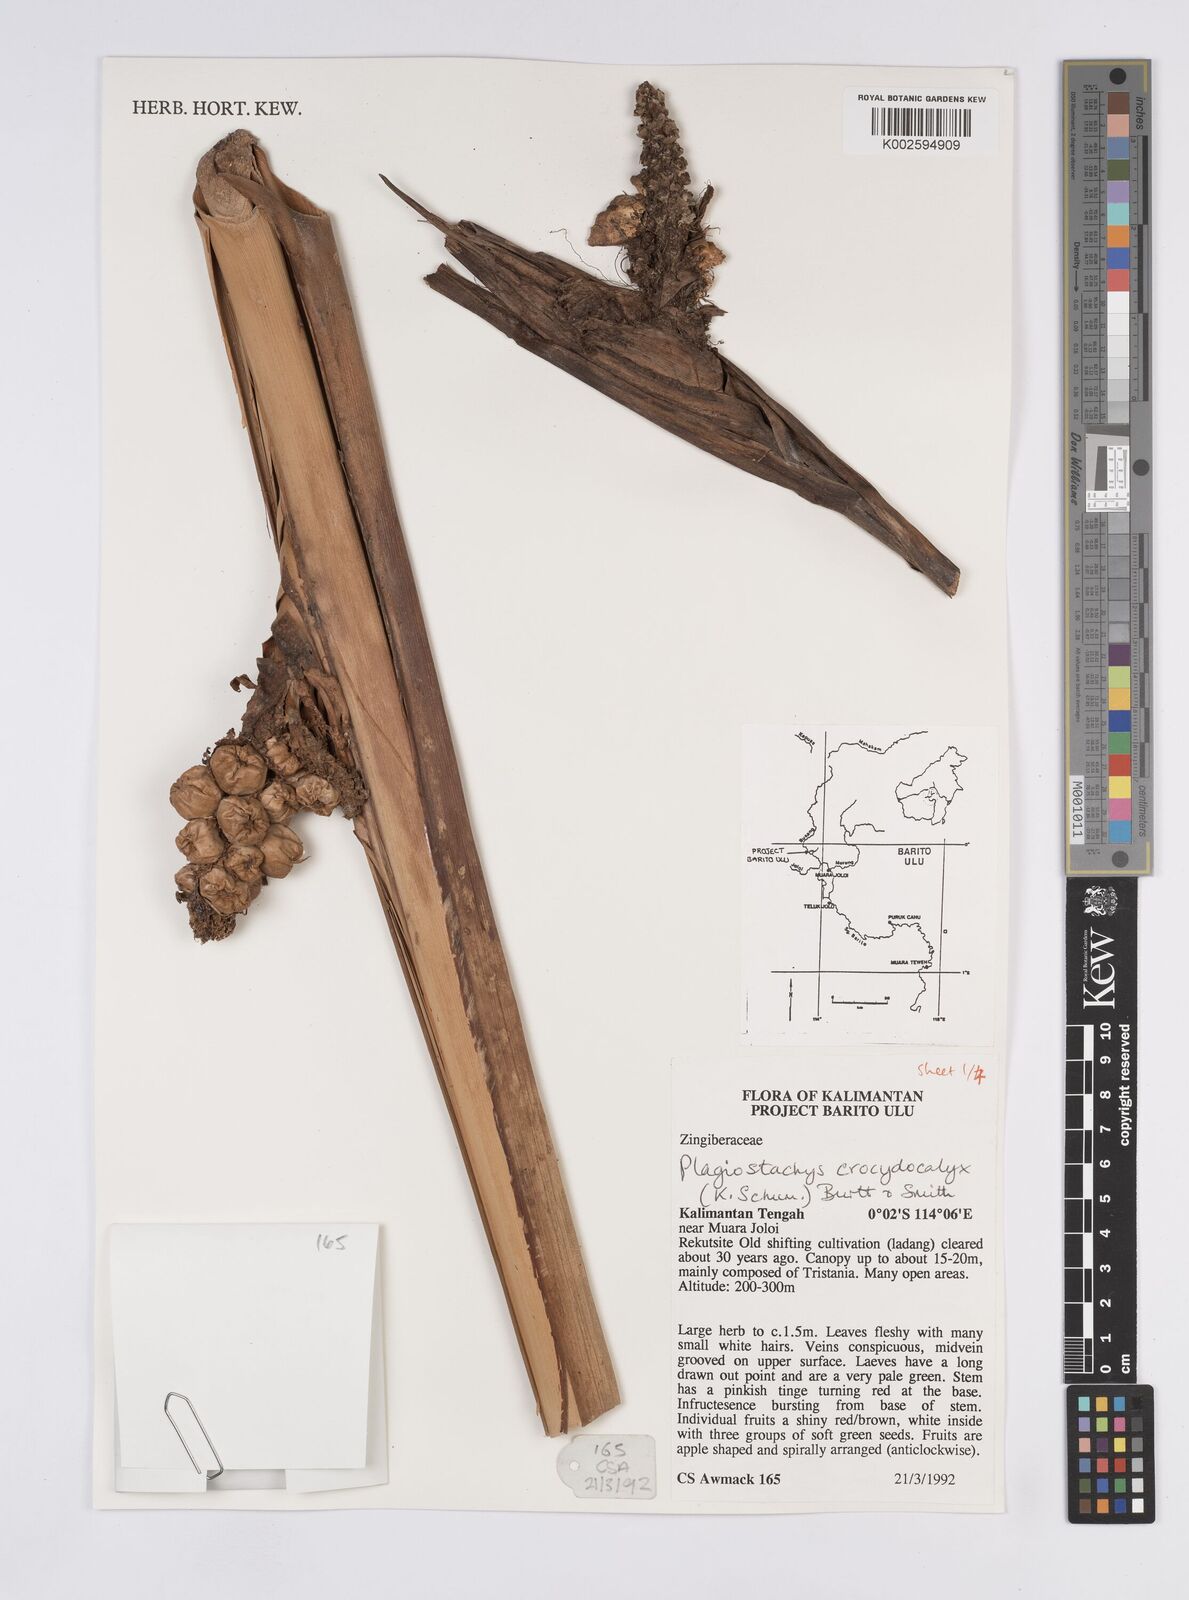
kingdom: Plantae
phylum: Tracheophyta
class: Liliopsida
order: Zingiberales
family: Zingiberaceae
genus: Plagiostachys
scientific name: Plagiostachys crocydocalyx
